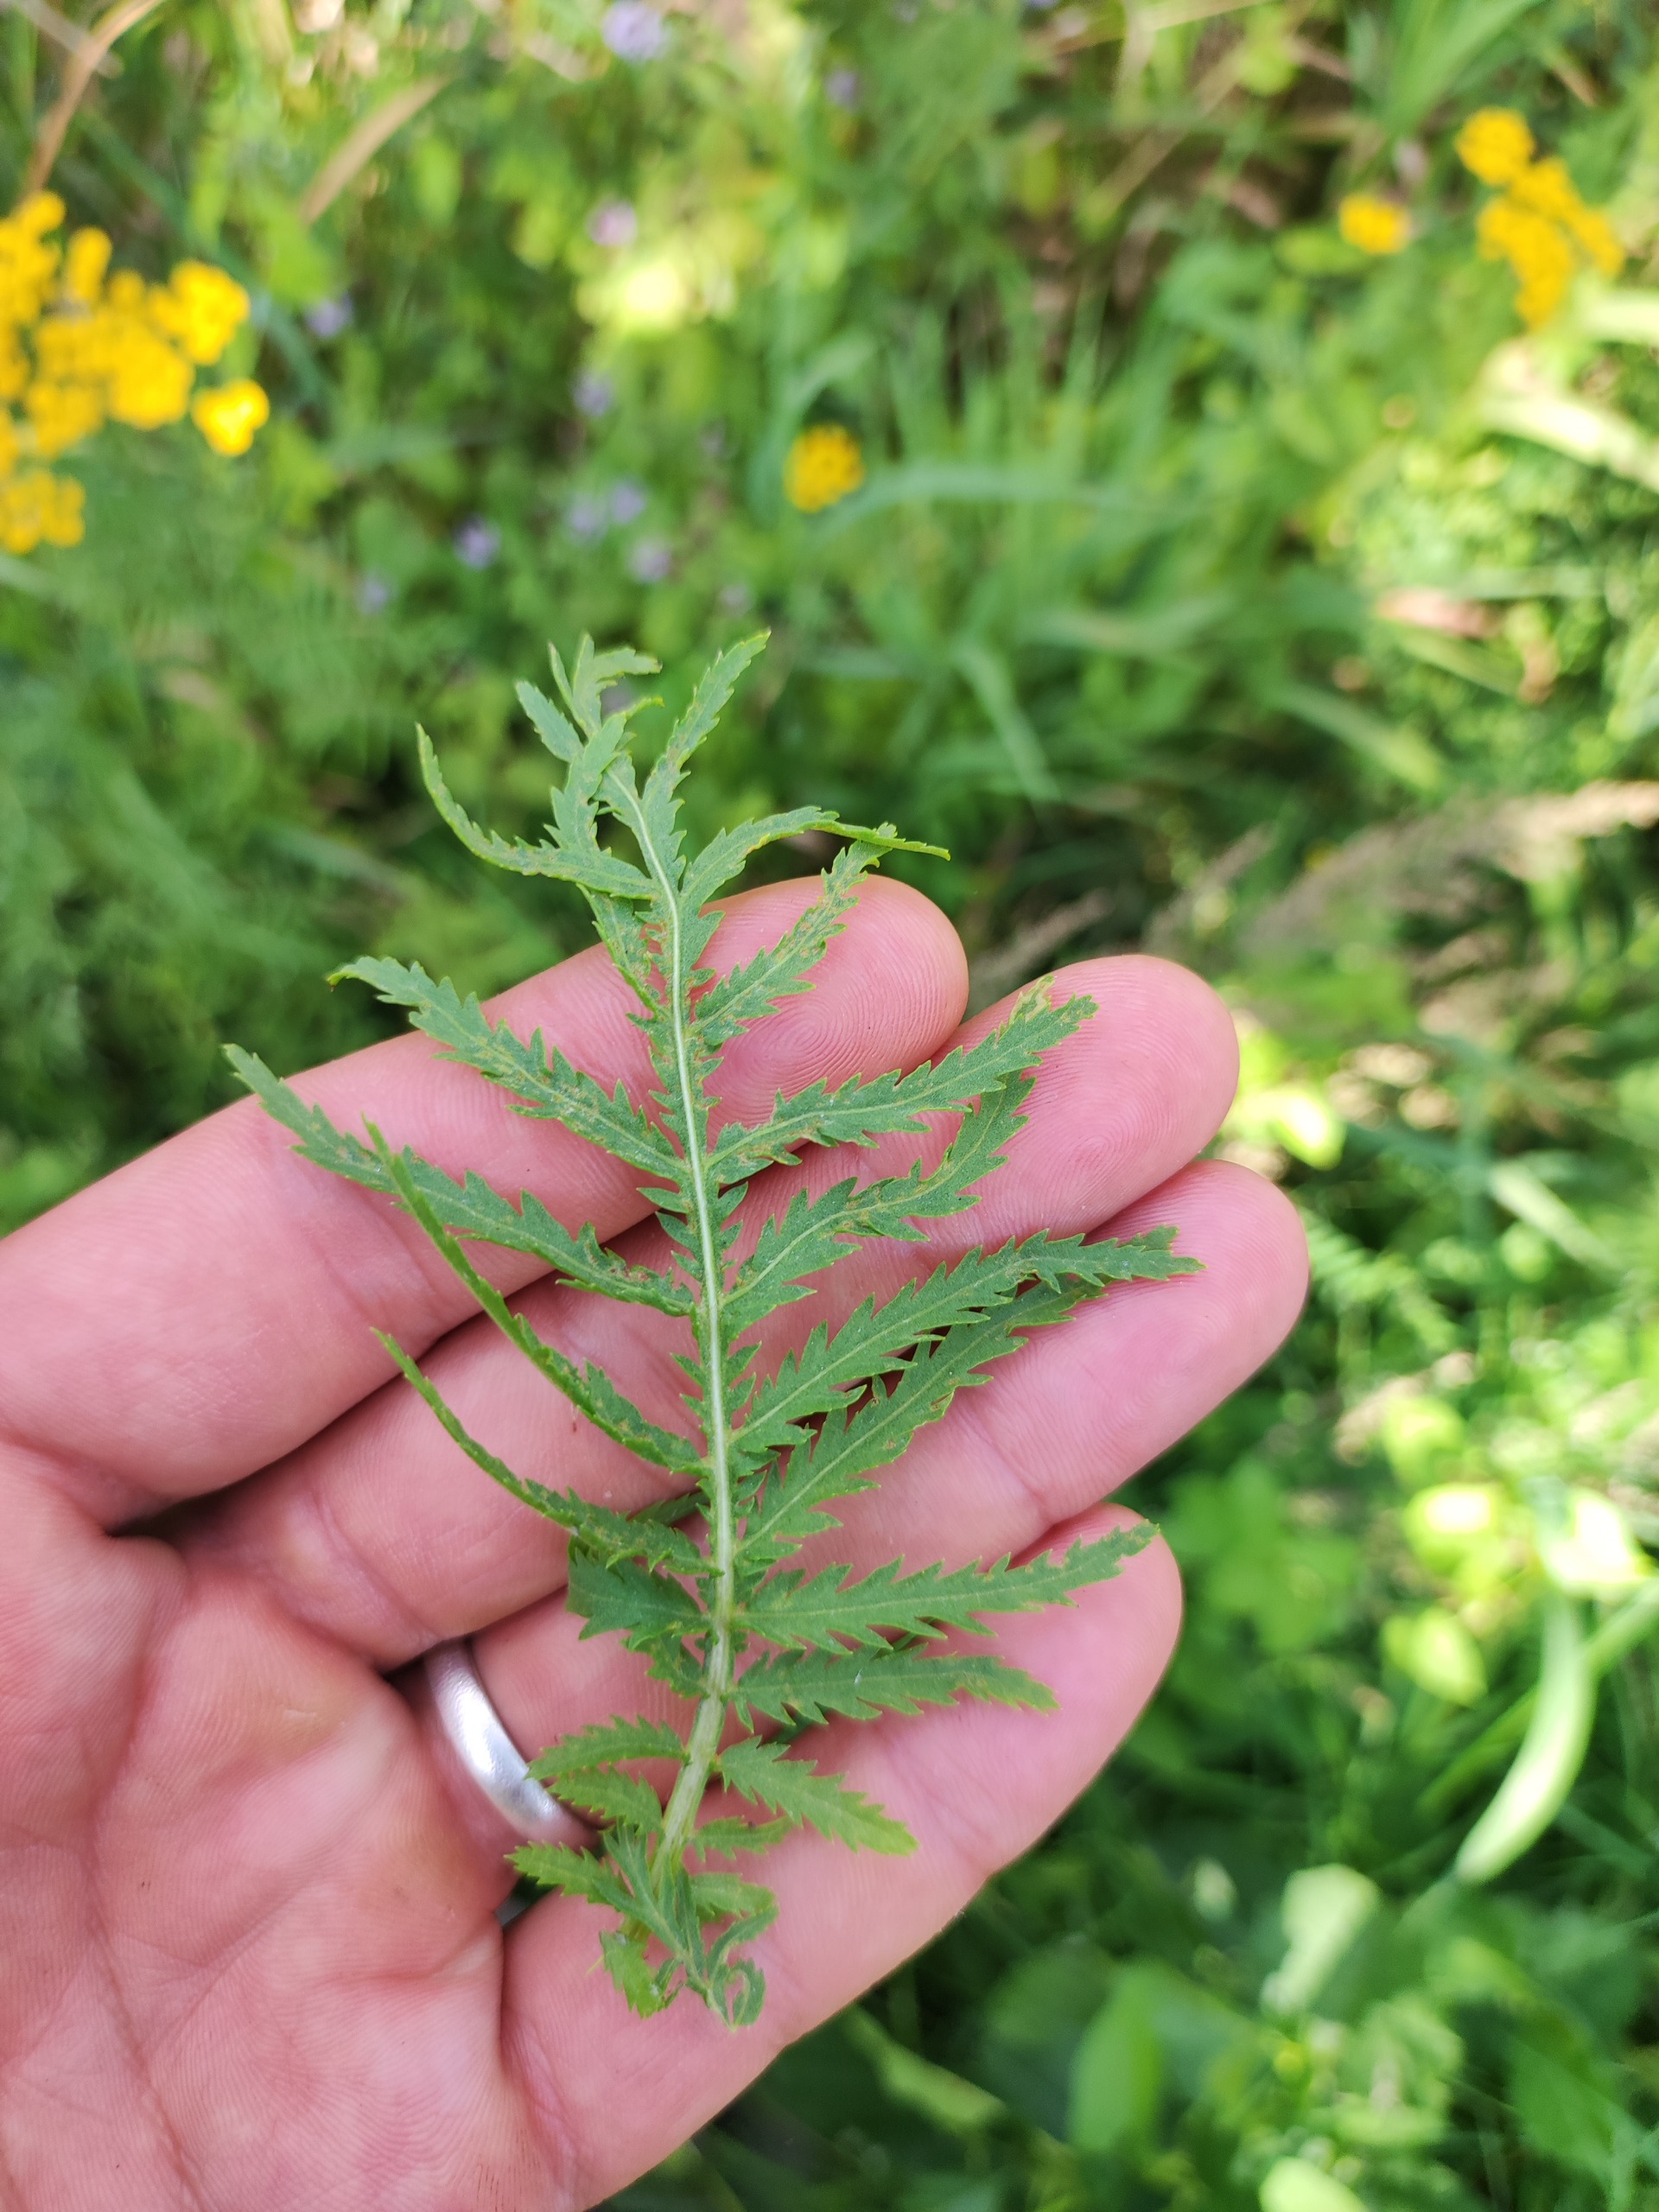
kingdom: Plantae
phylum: Tracheophyta
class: Magnoliopsida
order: Asterales
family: Asteraceae
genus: Tanacetum
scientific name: Tanacetum vulgare
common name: Rejnfan
